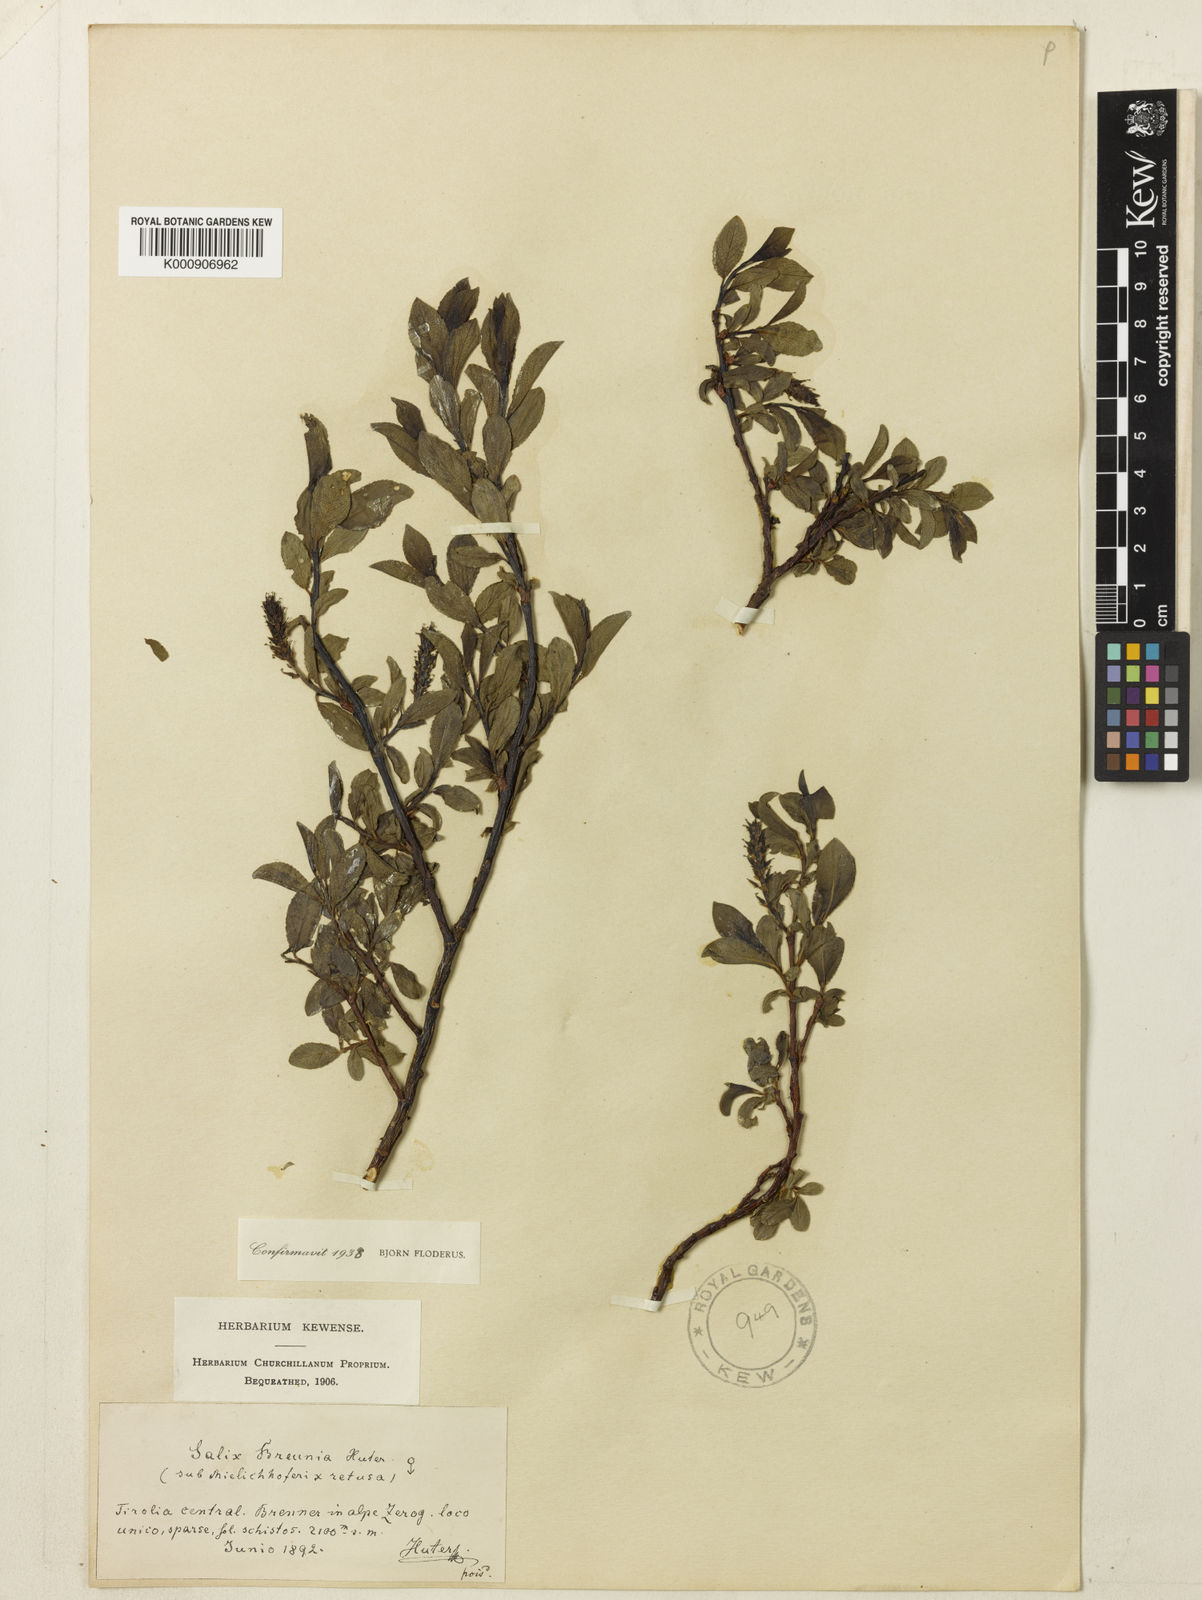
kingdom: Plantae
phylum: Tracheophyta
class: Magnoliopsida
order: Malpighiales
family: Salicaceae
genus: Salix
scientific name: Salix mielichhoferi
